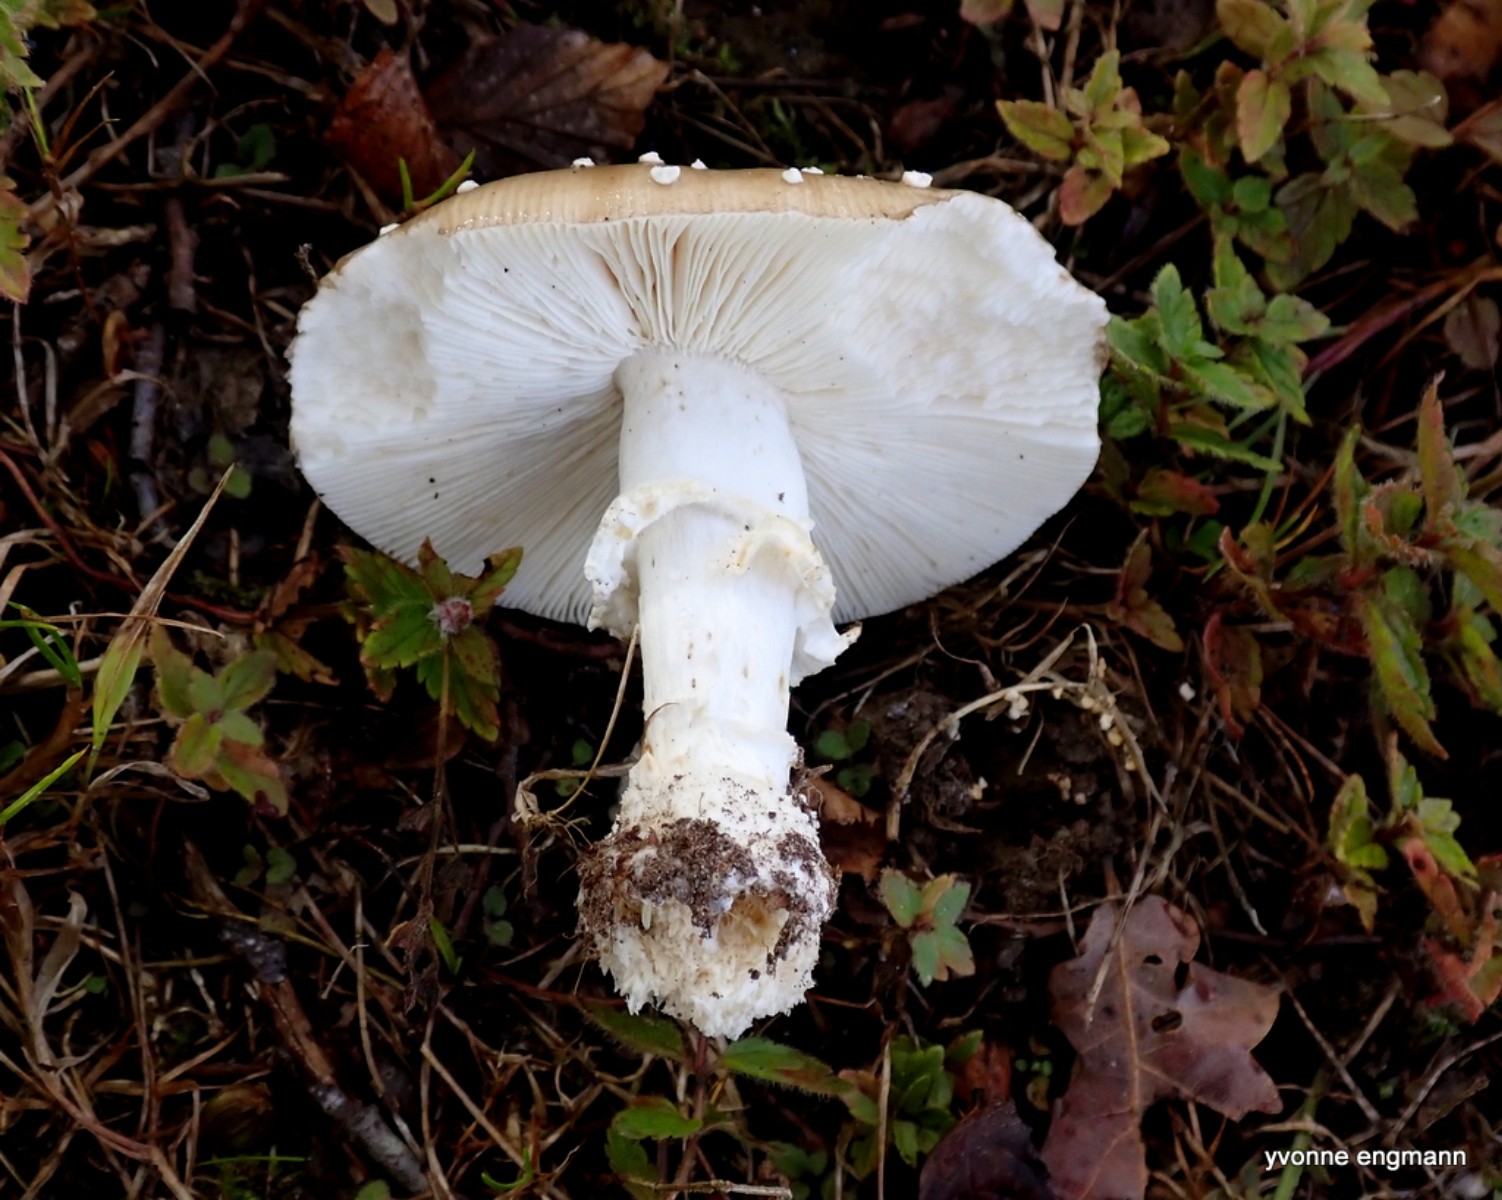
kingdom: Fungi
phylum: Basidiomycota
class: Agaricomycetes
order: Agaricales
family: Amanitaceae
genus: Amanita
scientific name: Amanita pantherina
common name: panter-fluesvamp
